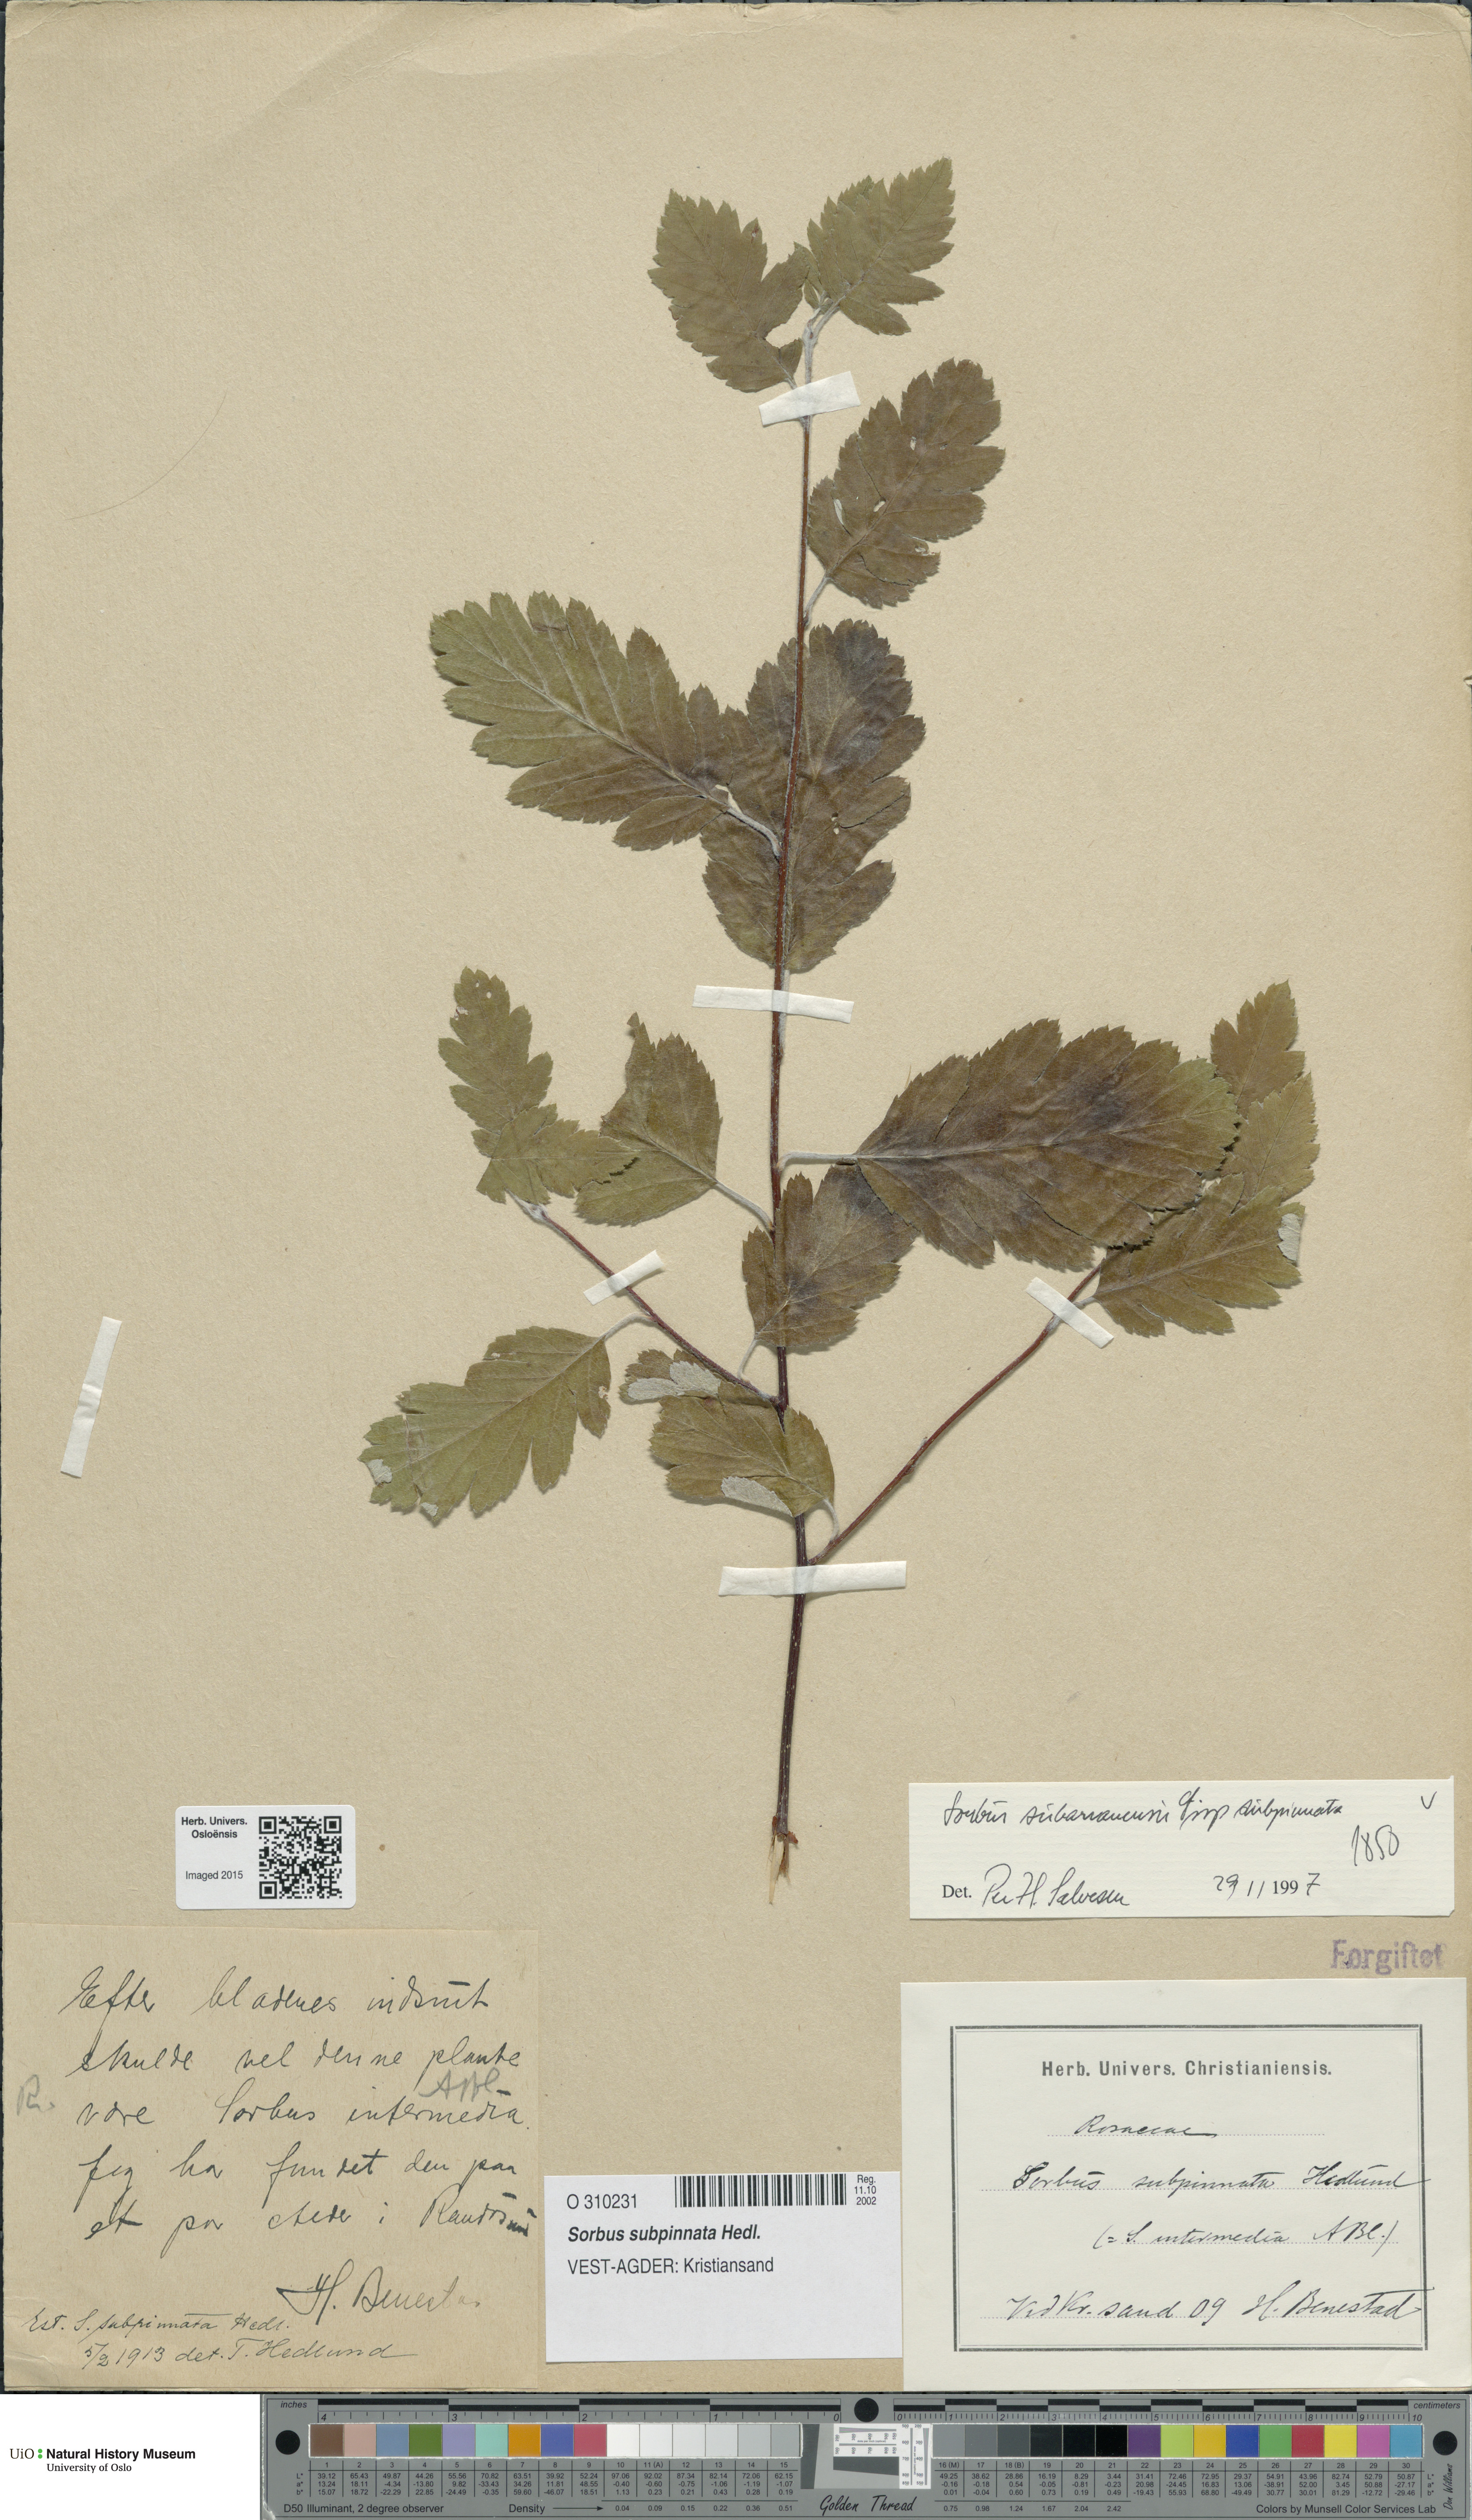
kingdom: Plantae
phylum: Tracheophyta
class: Magnoliopsida
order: Rosales
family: Rosaceae
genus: Hedlundia
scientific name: Hedlundia subpinnata
